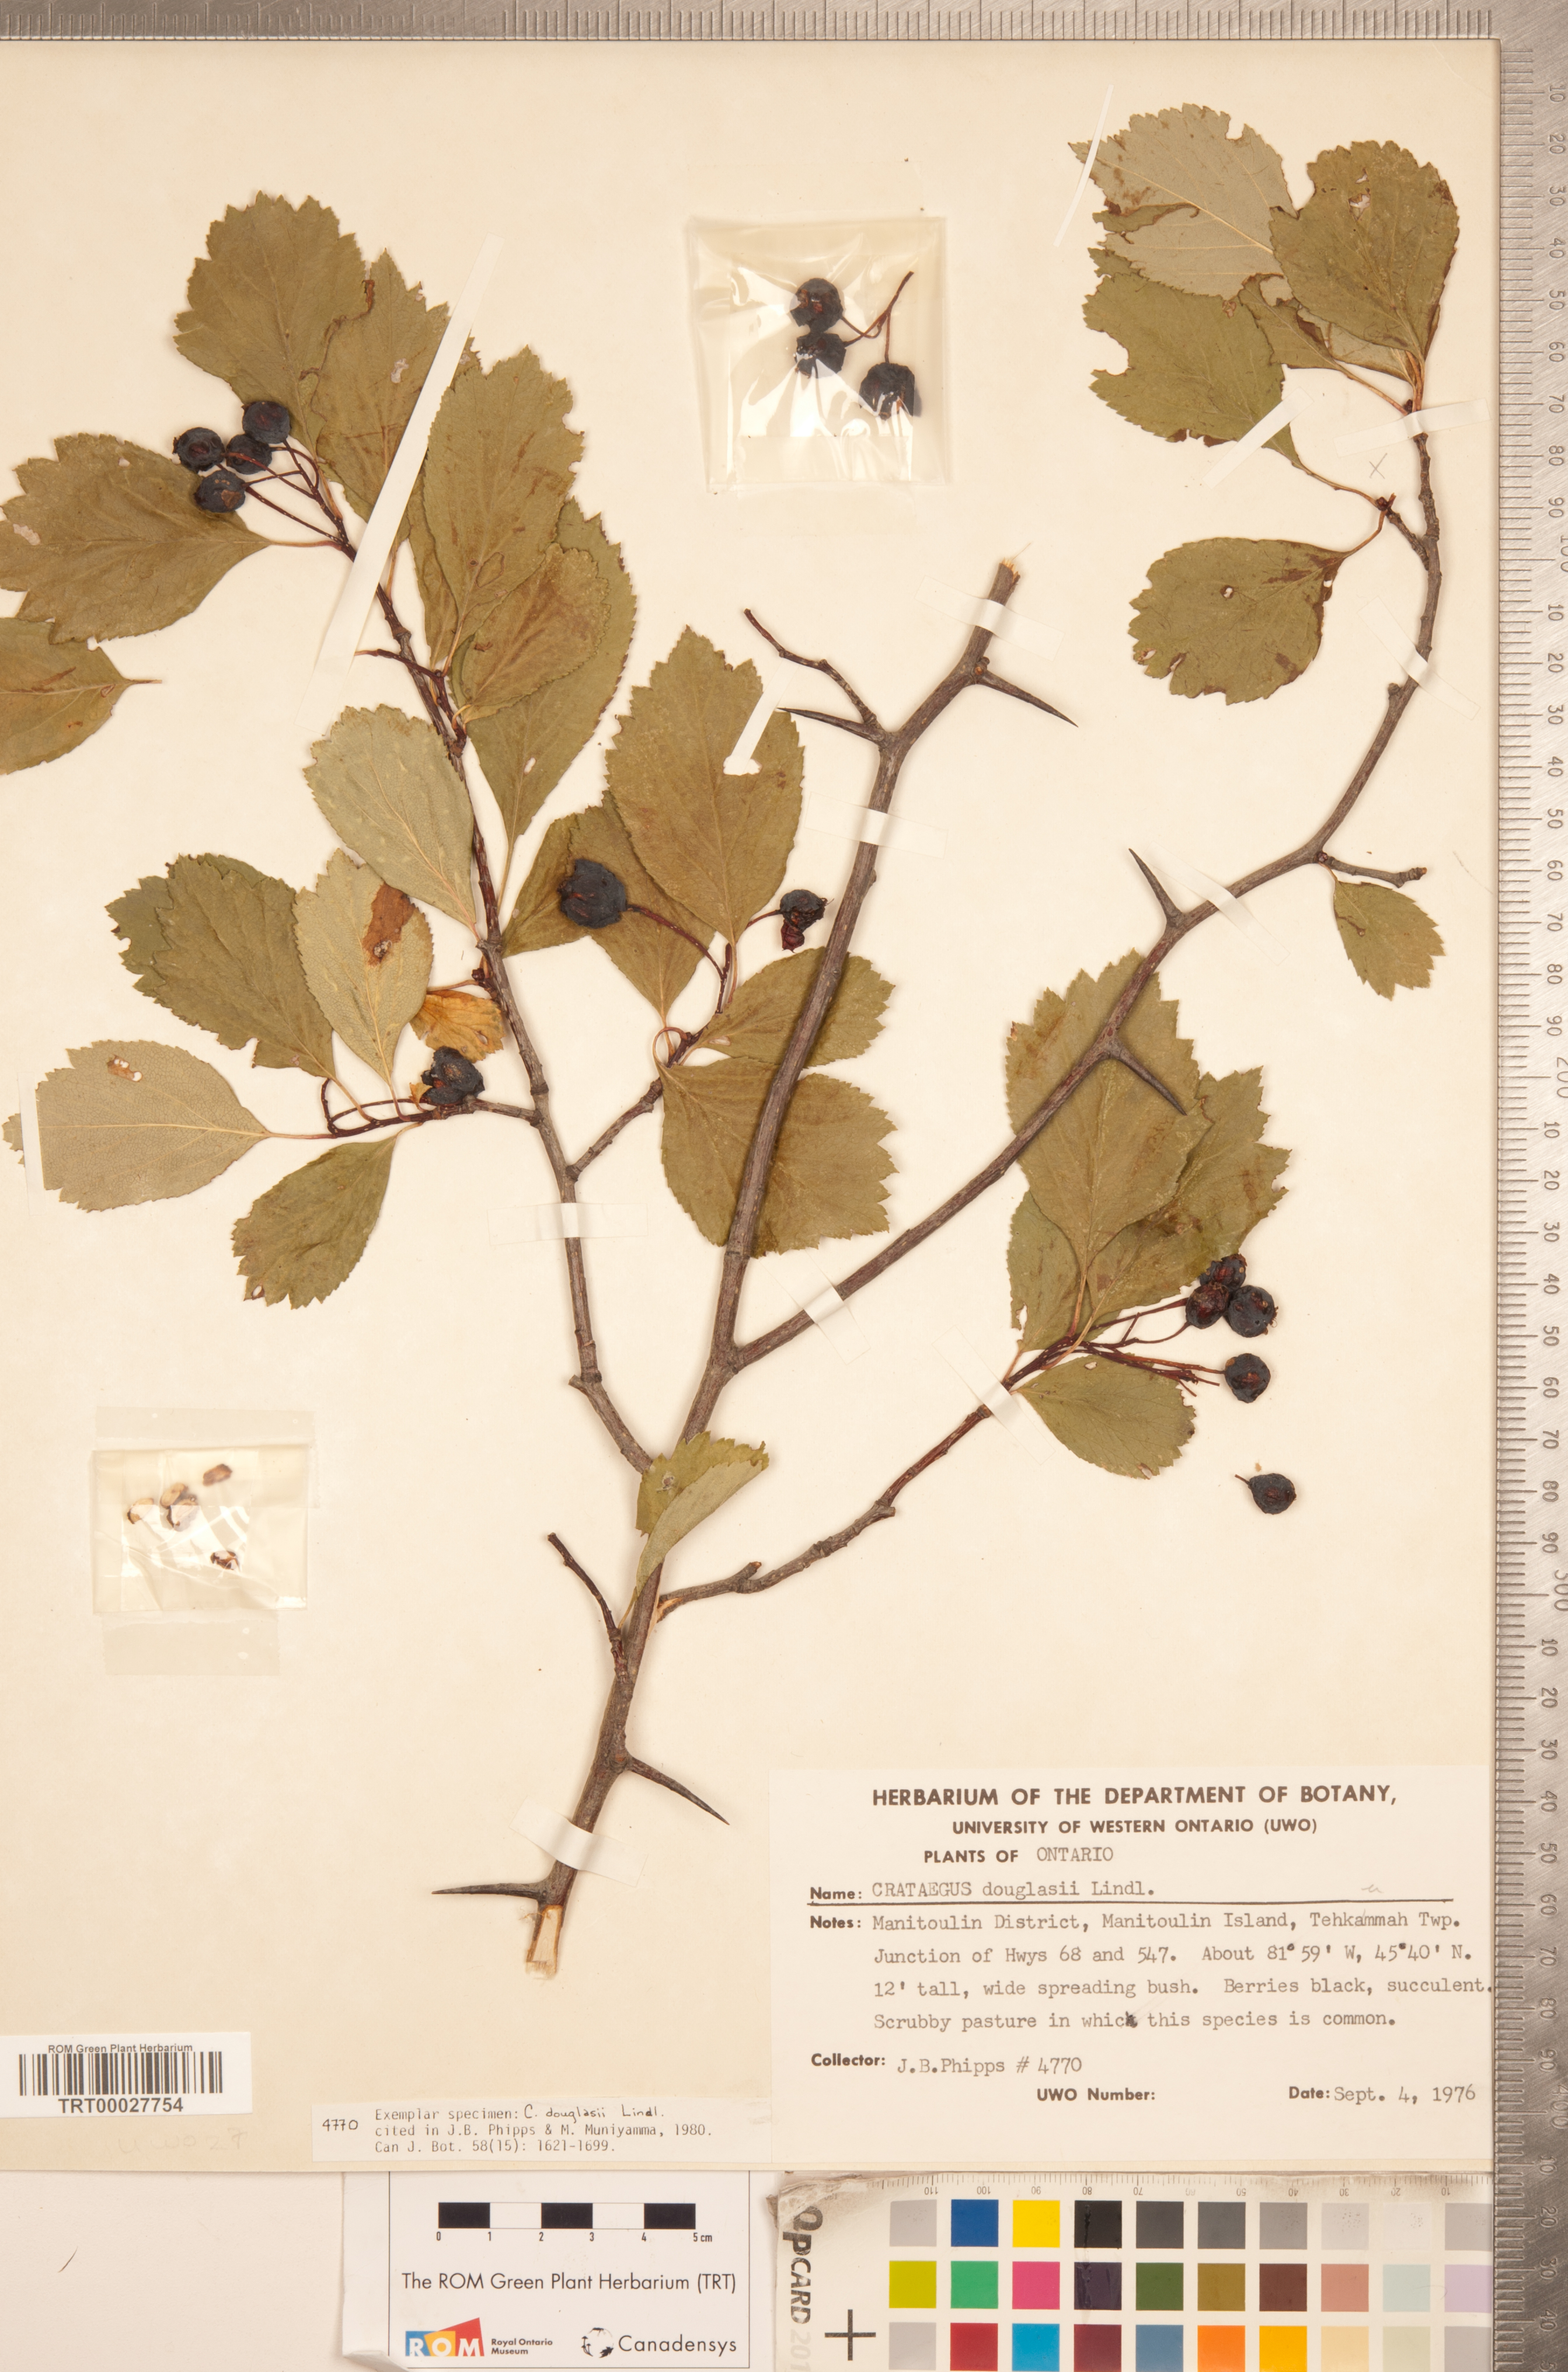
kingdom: Plantae
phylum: Tracheophyta
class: Magnoliopsida
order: Rosales
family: Rosaceae
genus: Crataegus
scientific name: Crataegus douglasii
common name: Black hawthorn
